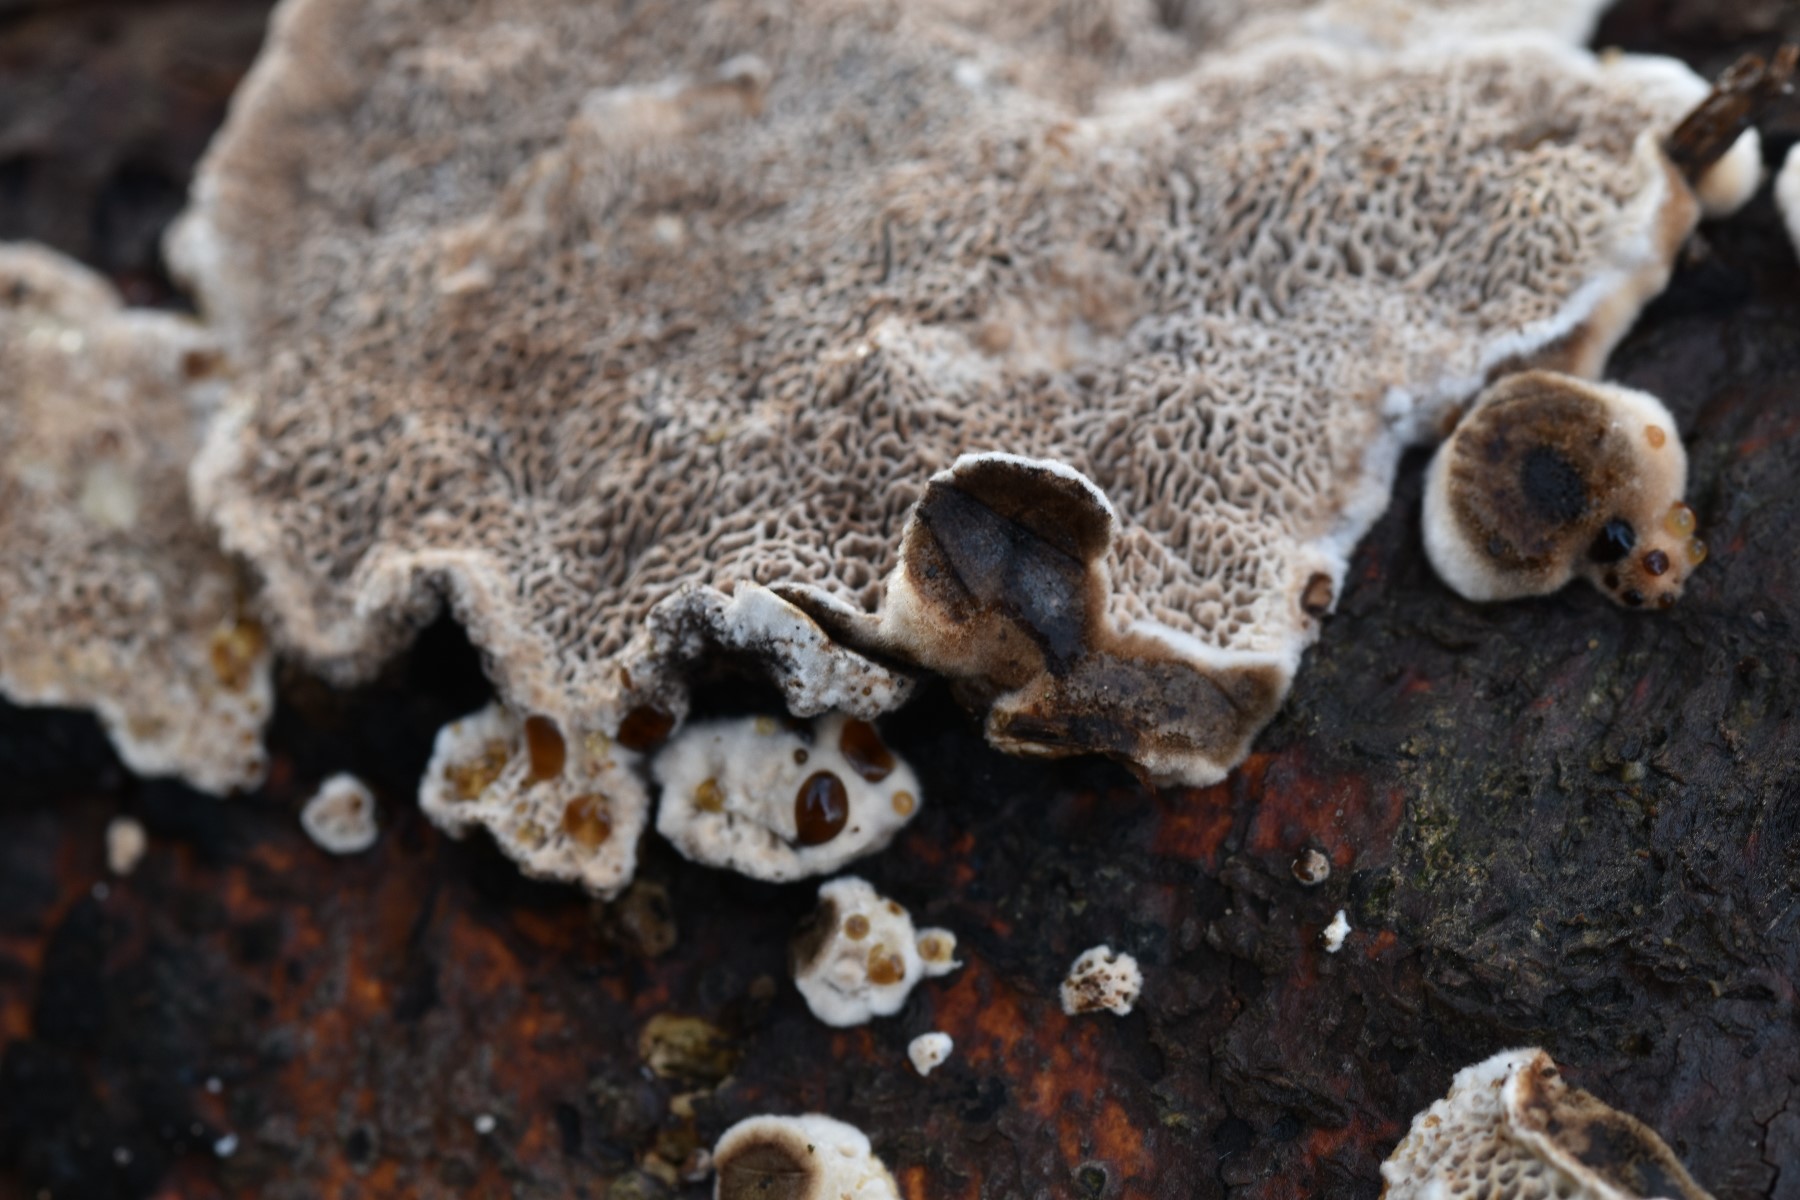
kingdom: Fungi
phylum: Basidiomycota
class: Agaricomycetes
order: Polyporales
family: Polyporaceae
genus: Podofomes
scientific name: Podofomes mollis
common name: blød begporesvamp
